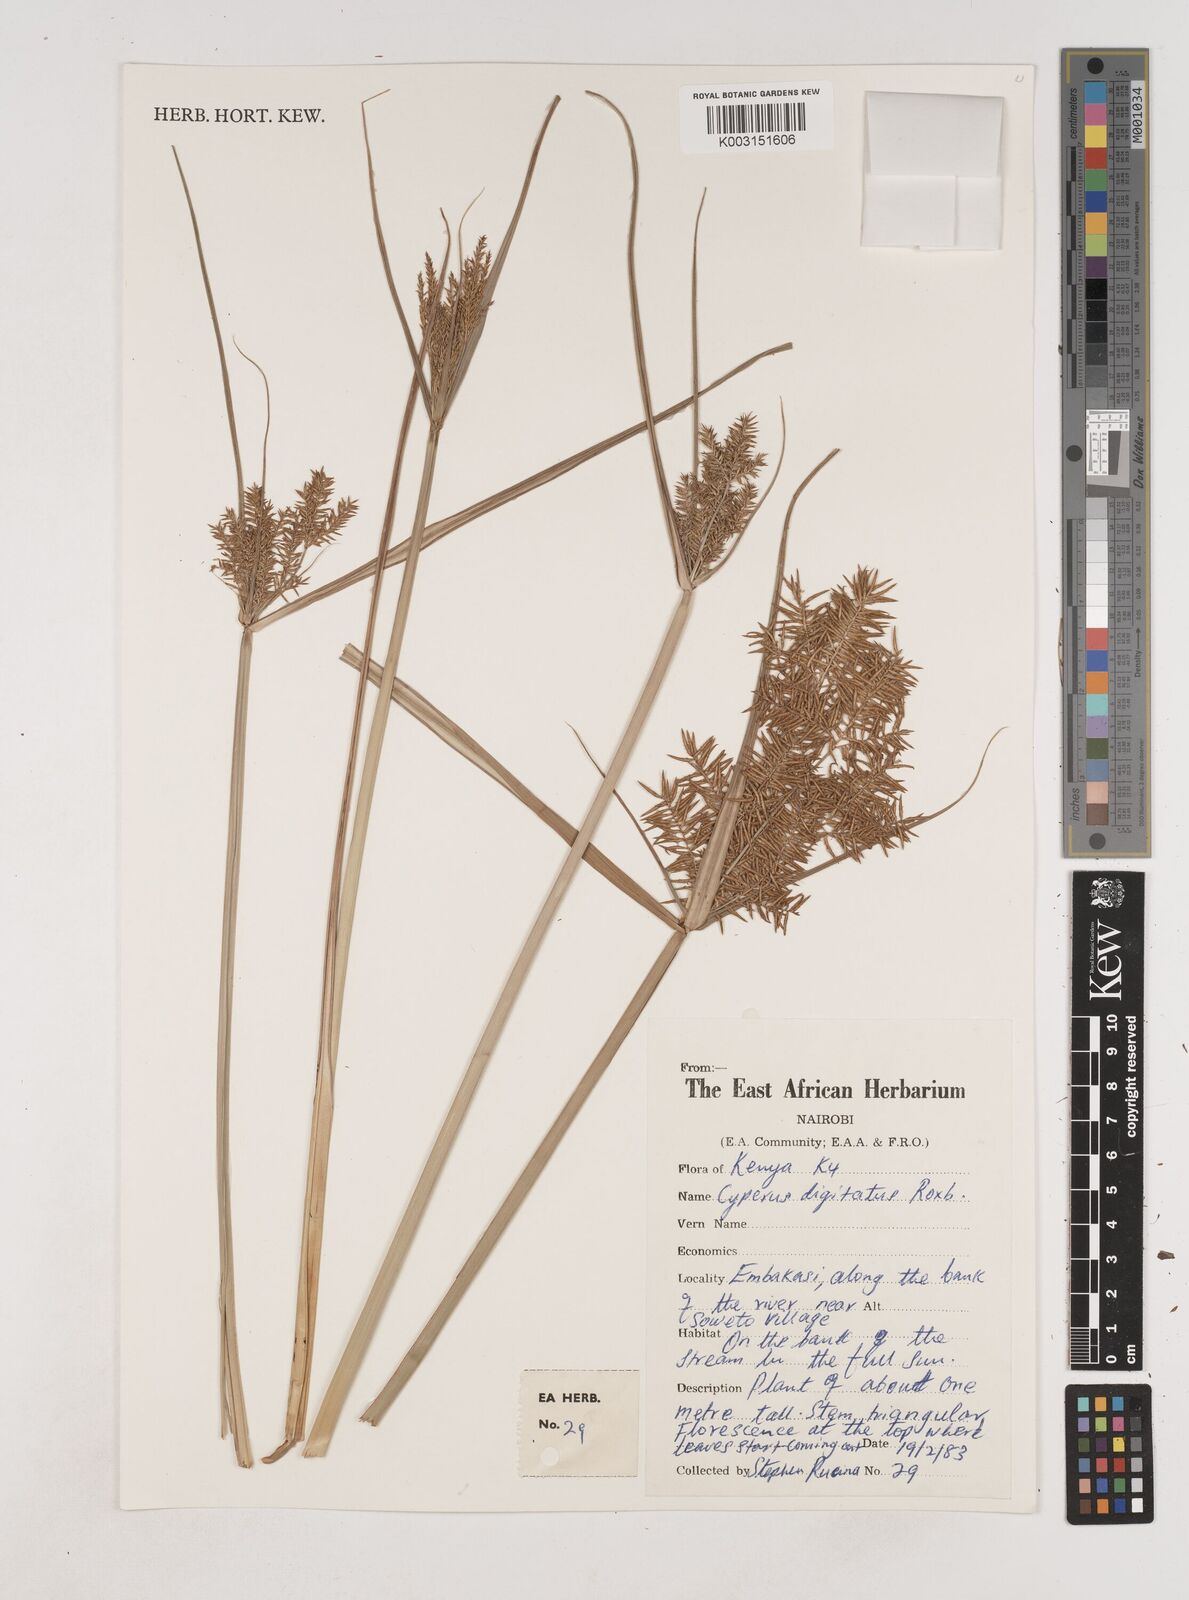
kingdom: Plantae
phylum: Tracheophyta
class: Liliopsida
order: Poales
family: Cyperaceae
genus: Cyperus
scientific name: Cyperus digitatus
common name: Finger flatsedge
